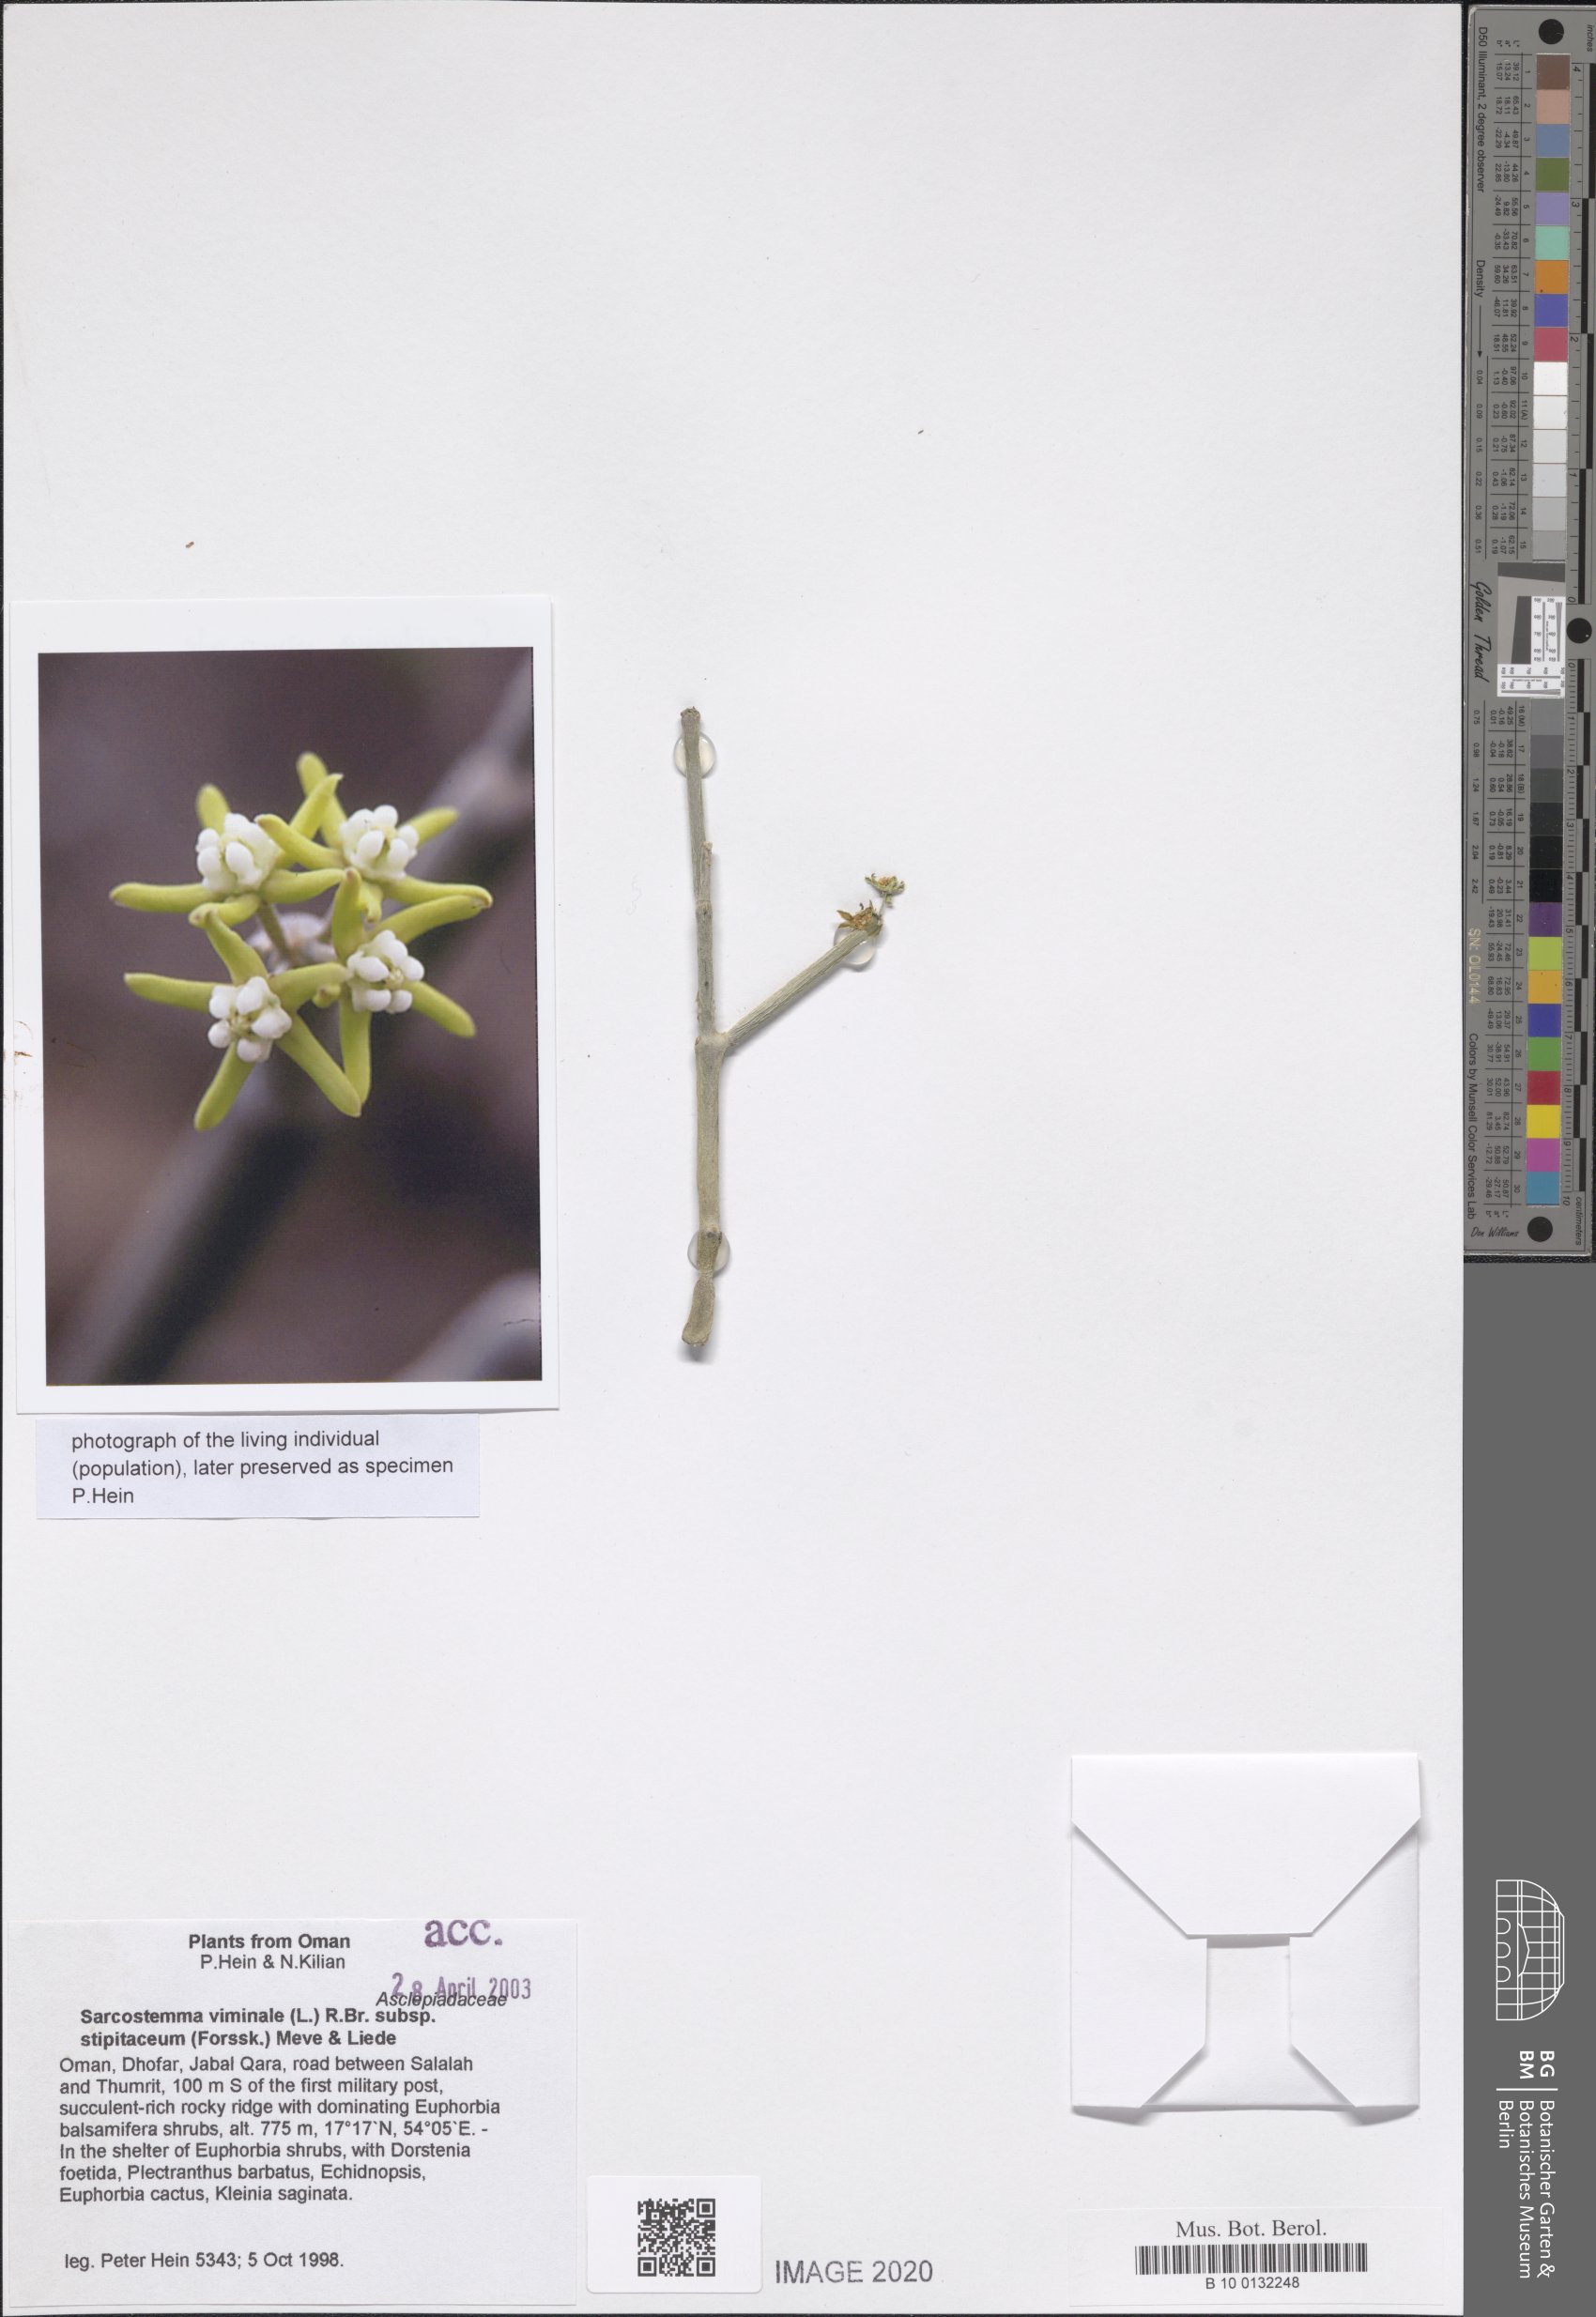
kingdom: Plantae
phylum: Tracheophyta
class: Magnoliopsida
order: Gentianales
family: Apocynaceae
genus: Cynanchum
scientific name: Cynanchum viminale
